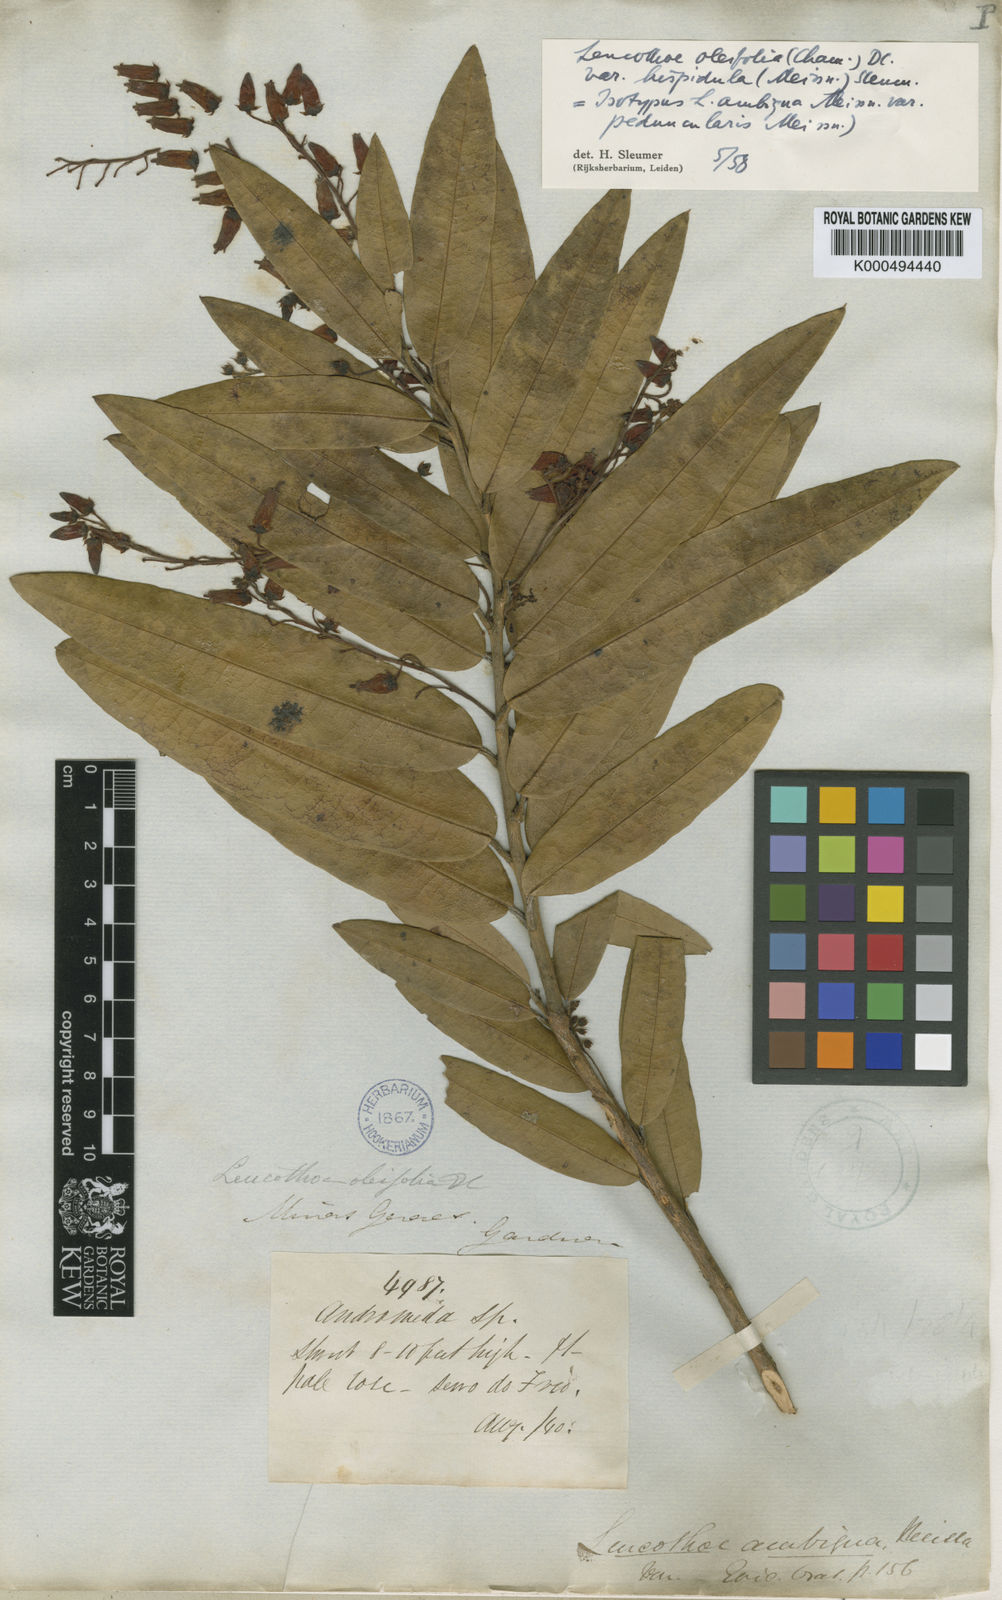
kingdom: Plantae
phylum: Tracheophyta
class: Magnoliopsida
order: Ericales
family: Ericaceae
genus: Agarista
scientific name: Agarista oleifolia
